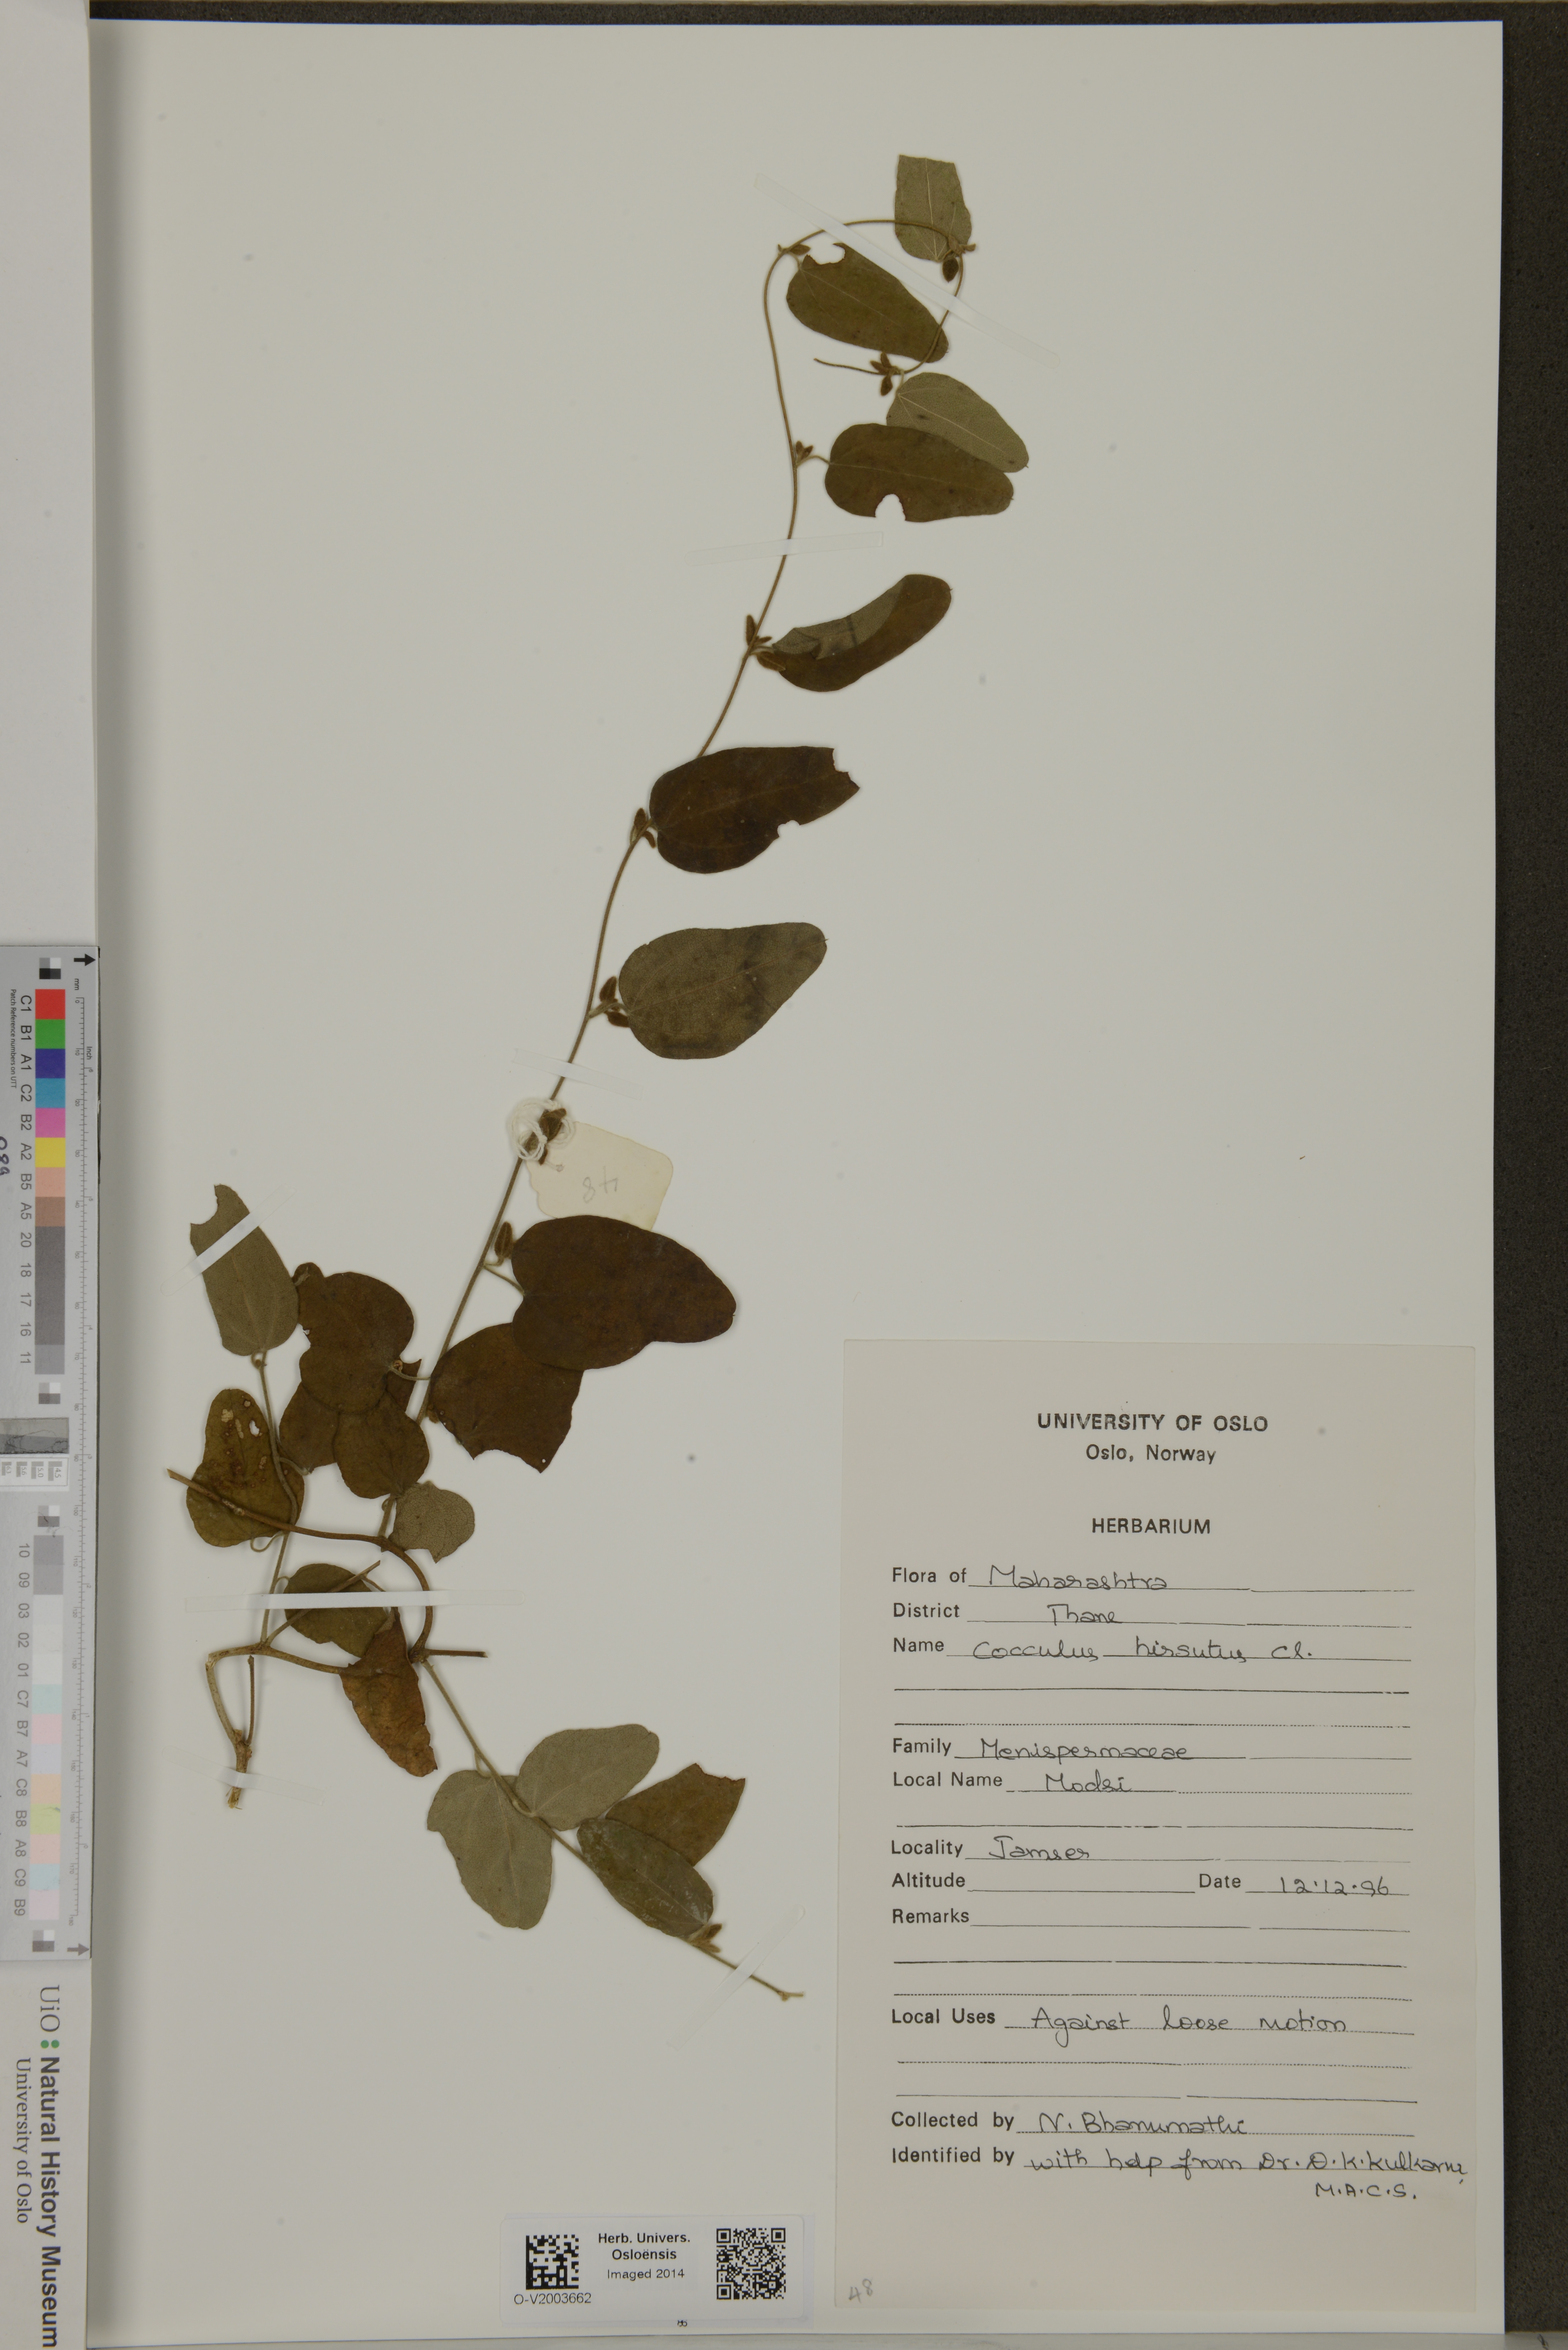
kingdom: Plantae
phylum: Tracheophyta
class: Magnoliopsida
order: Ranunculales
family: Menispermaceae
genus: Cocculus
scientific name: Cocculus
